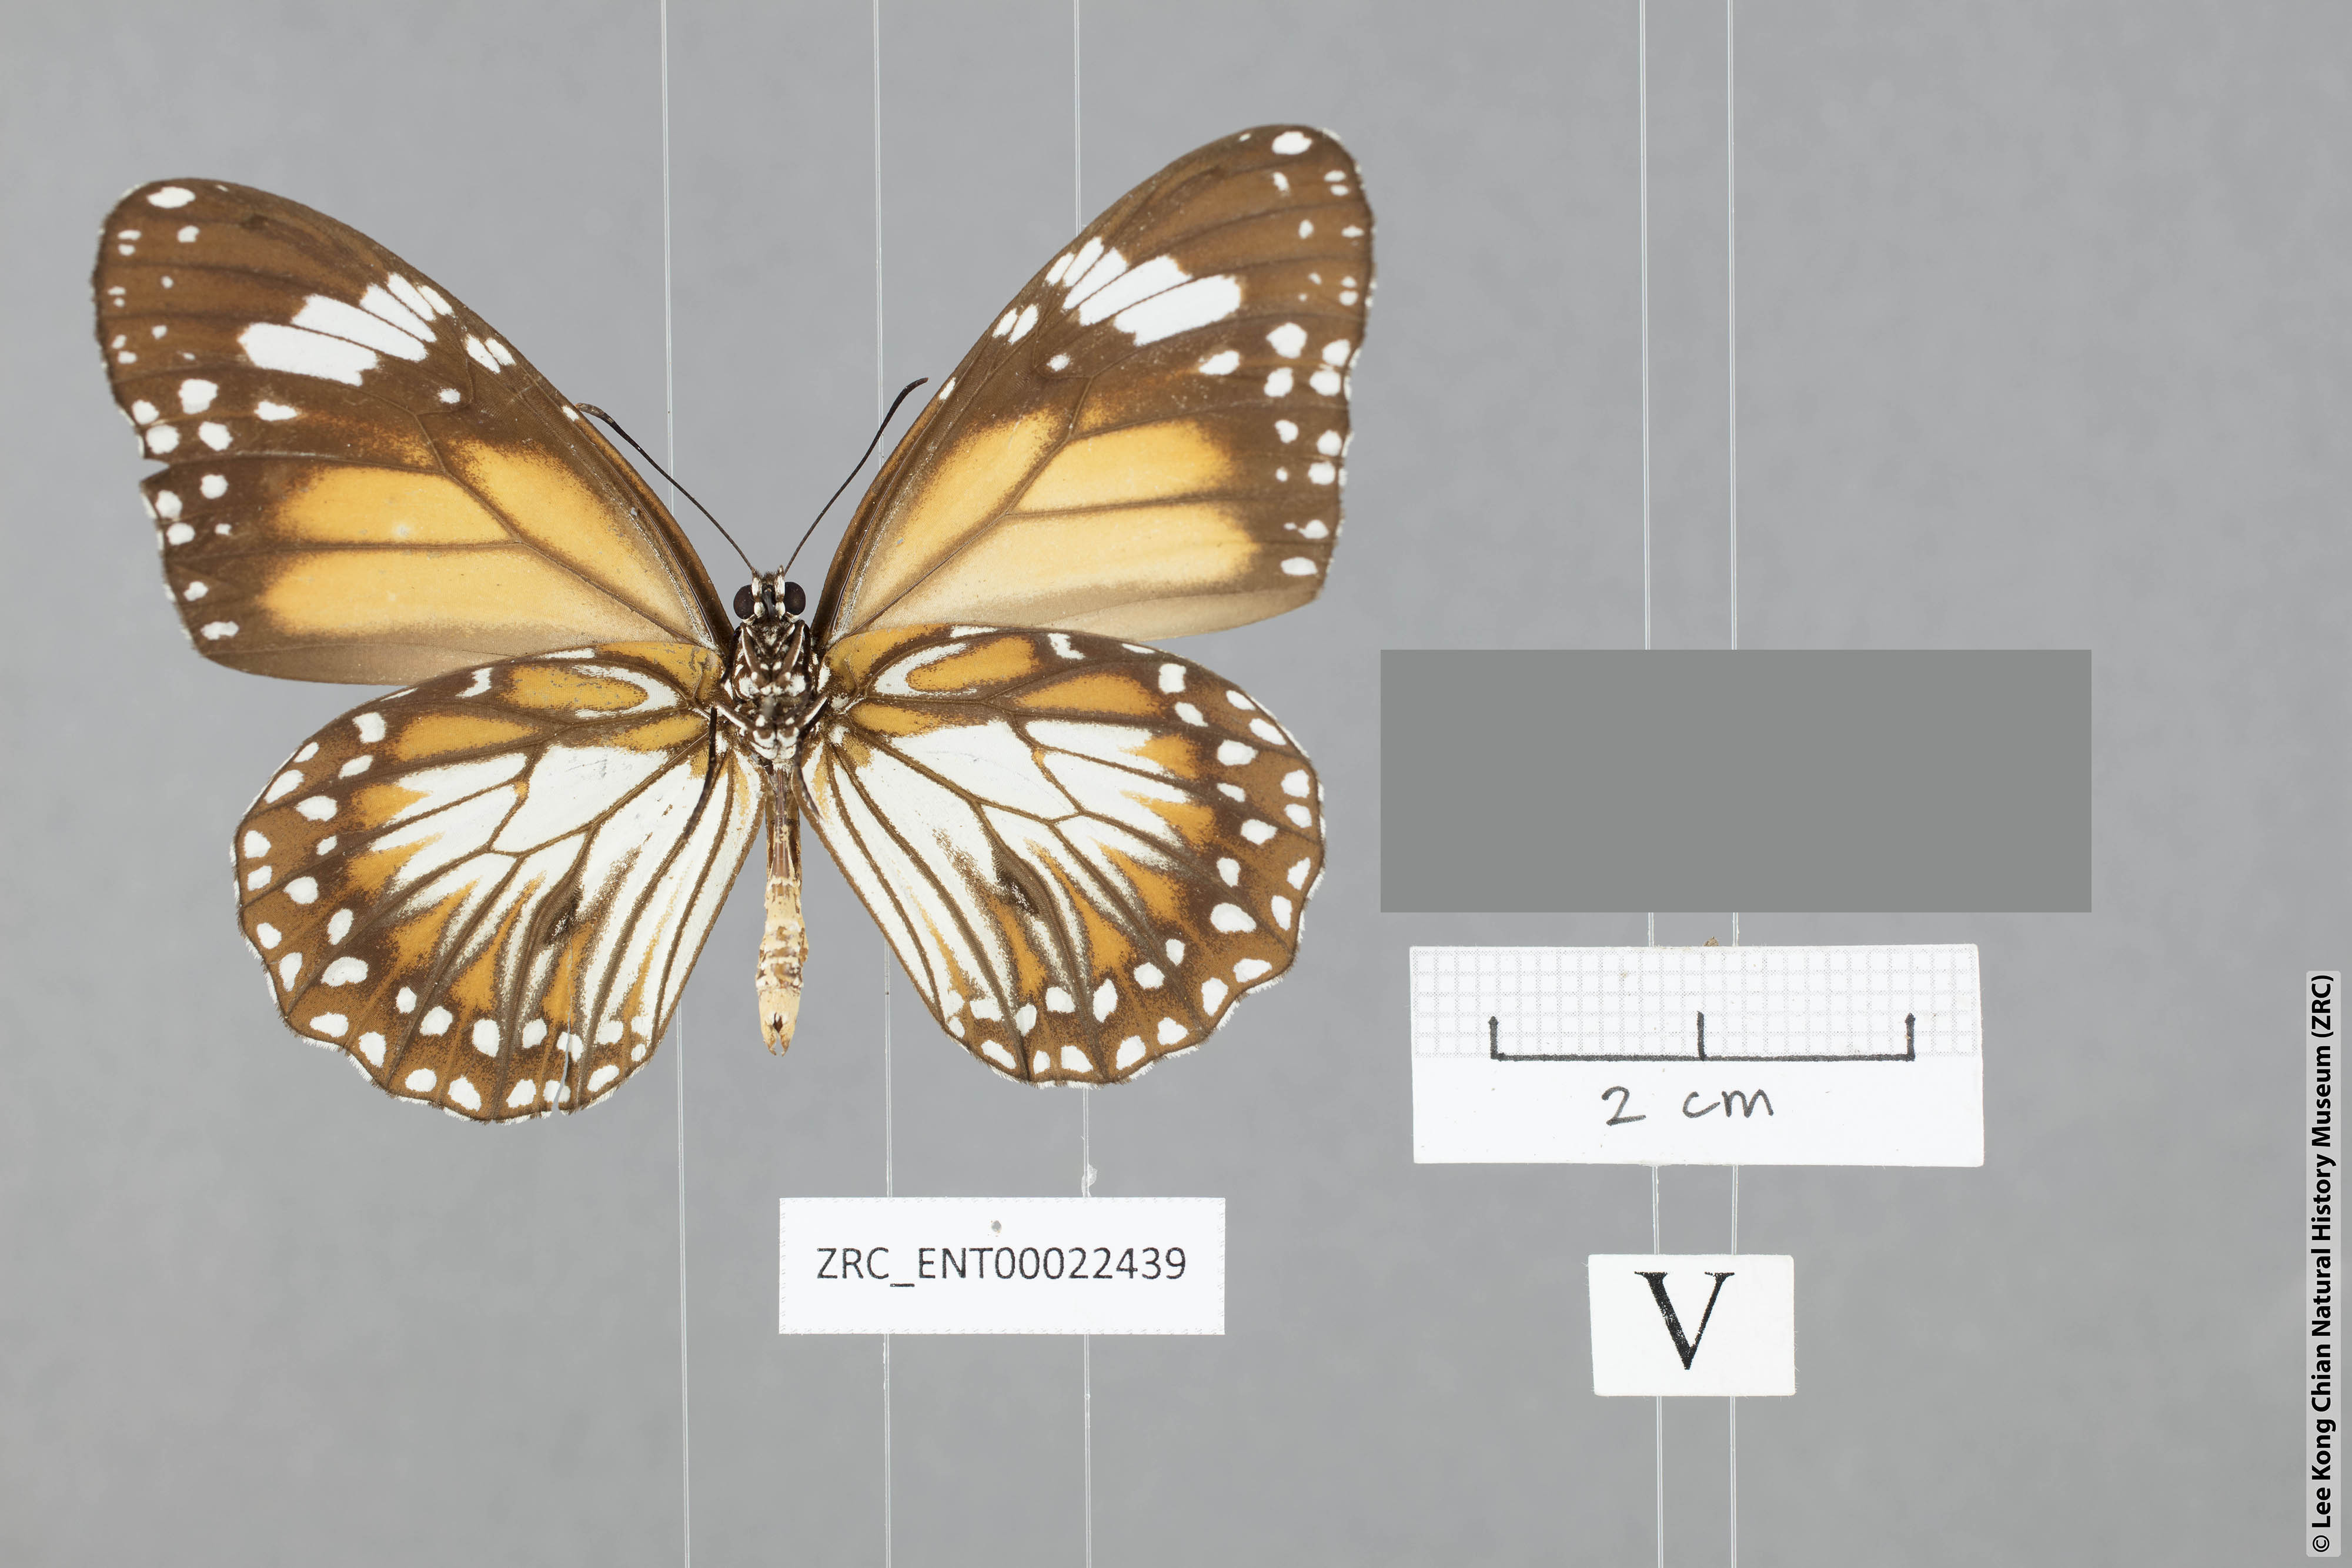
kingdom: Animalia
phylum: Arthropoda
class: Insecta
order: Lepidoptera
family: Nymphalidae
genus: Danaus
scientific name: Danaus affinis
